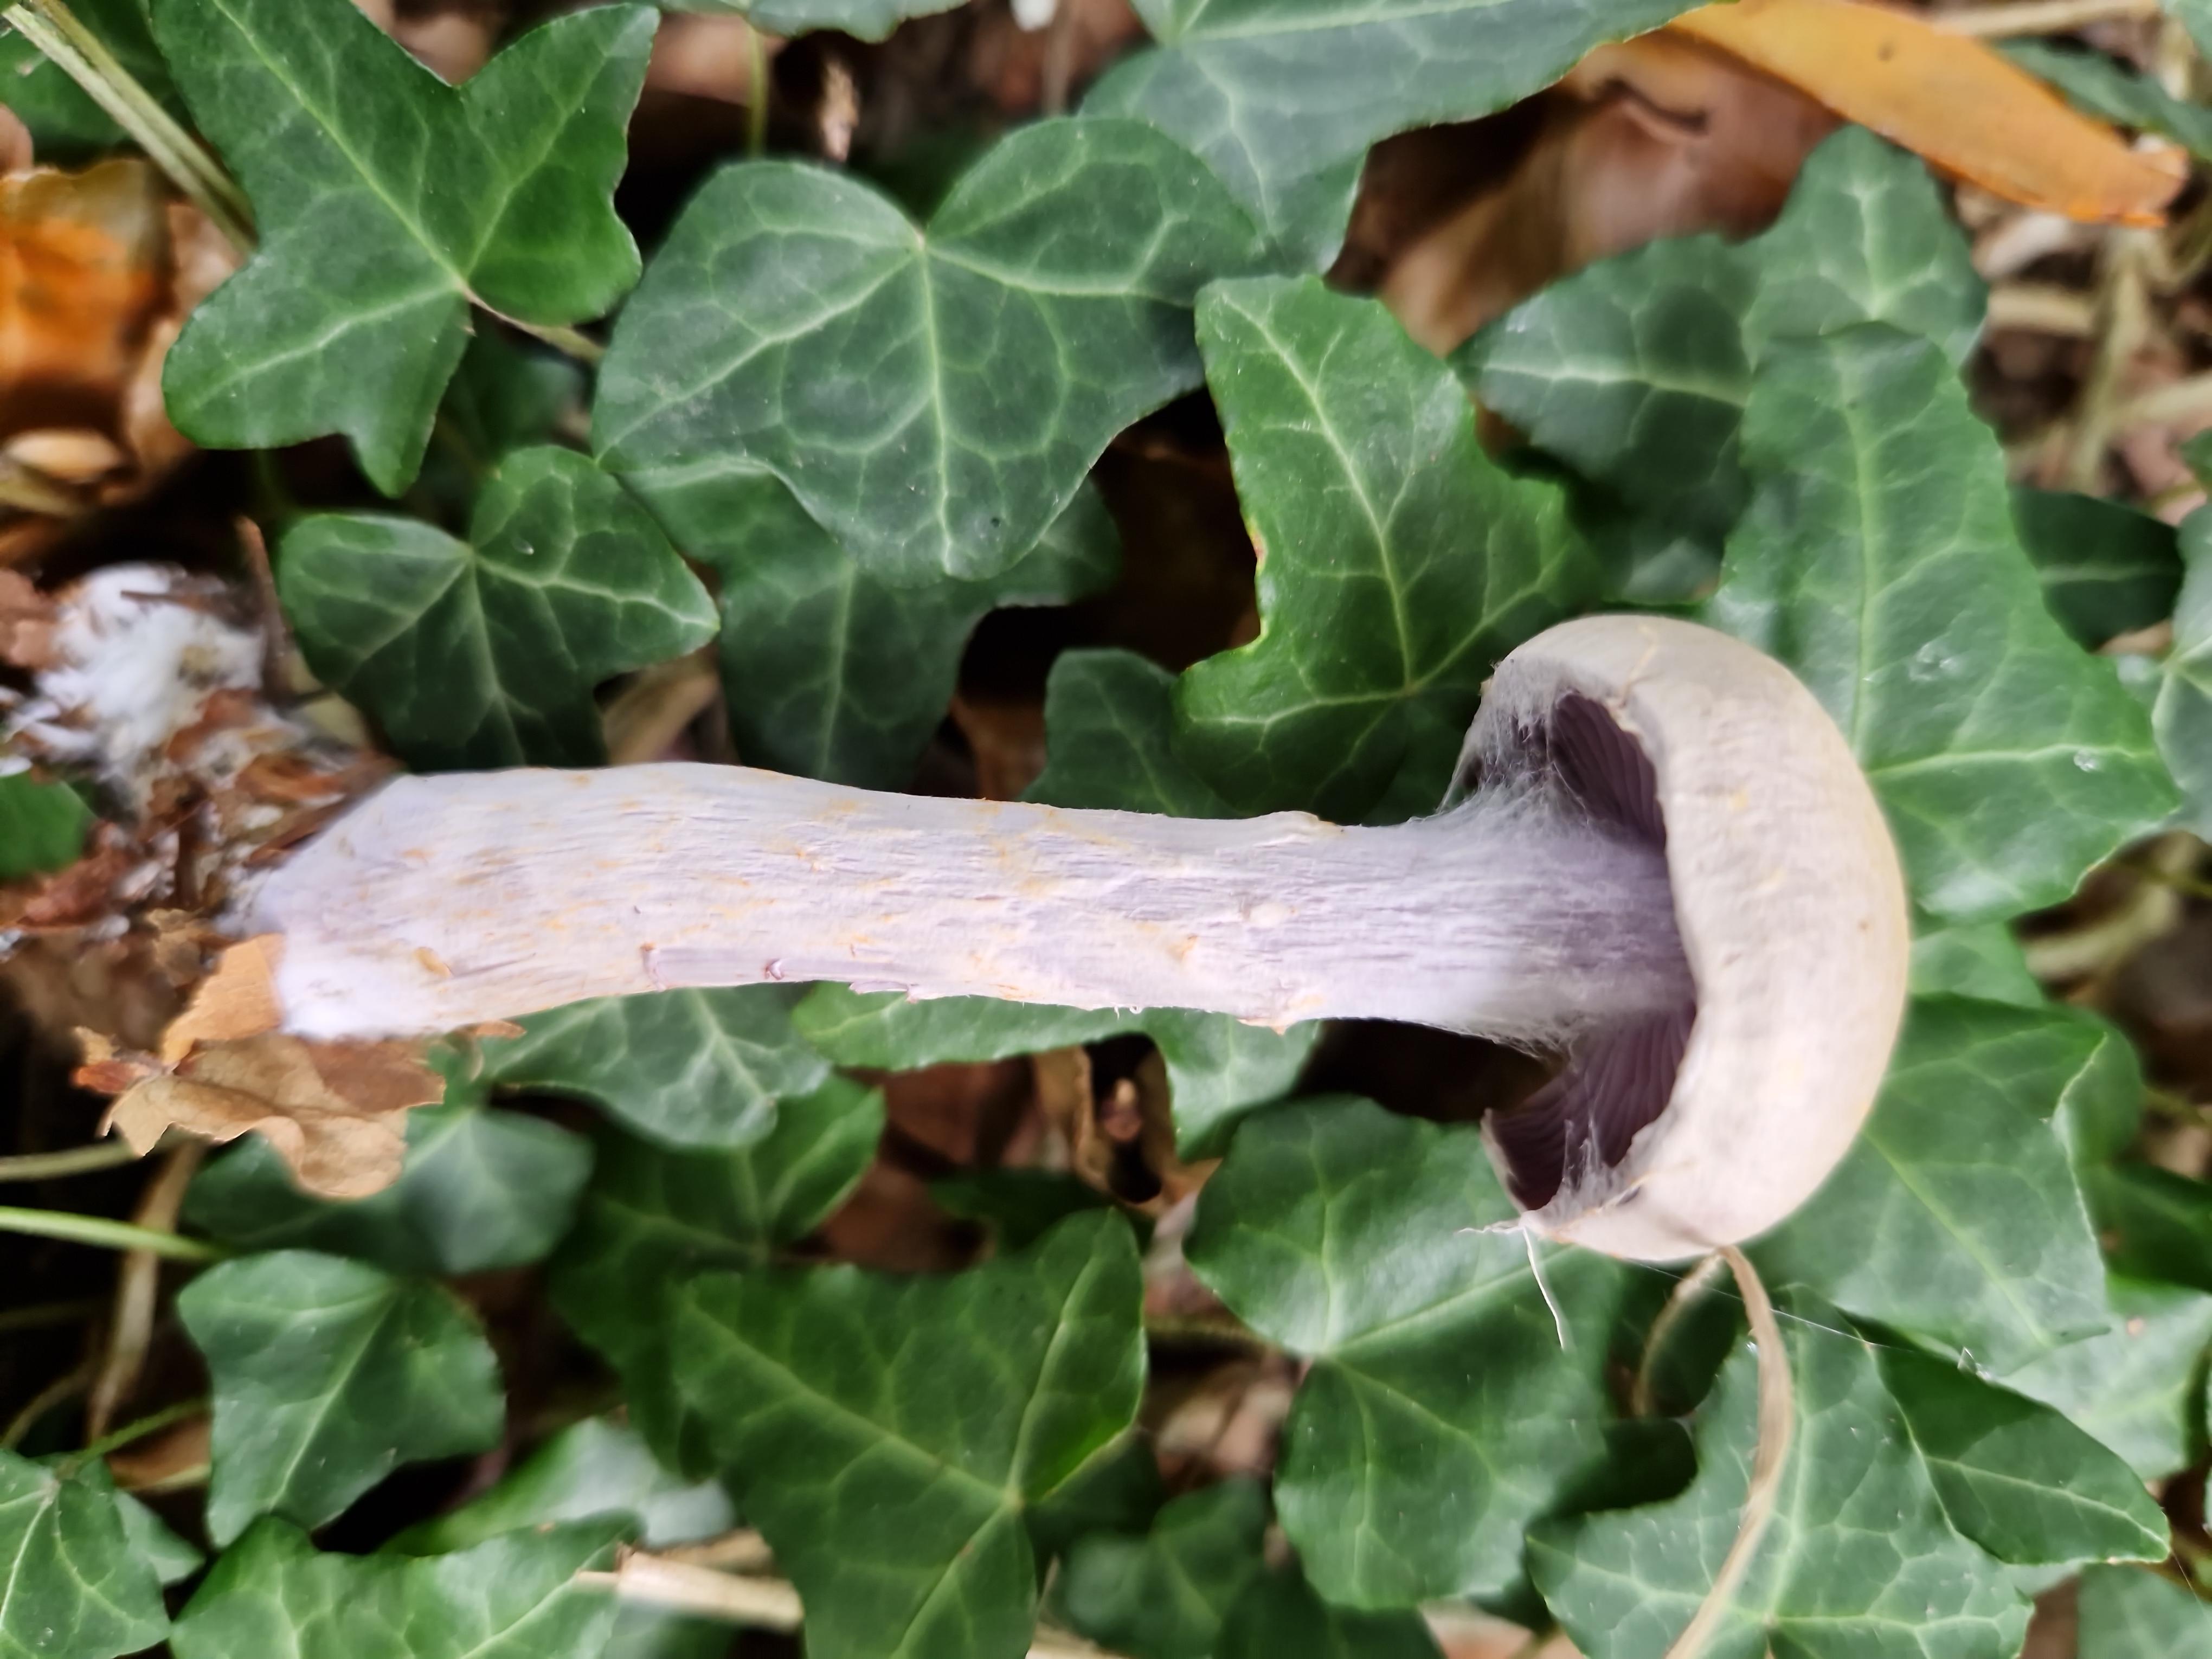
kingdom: Fungi
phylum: Basidiomycota
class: Agaricomycetes
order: Agaricales
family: Cortinariaceae
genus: Cortinarius
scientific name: Cortinarius
